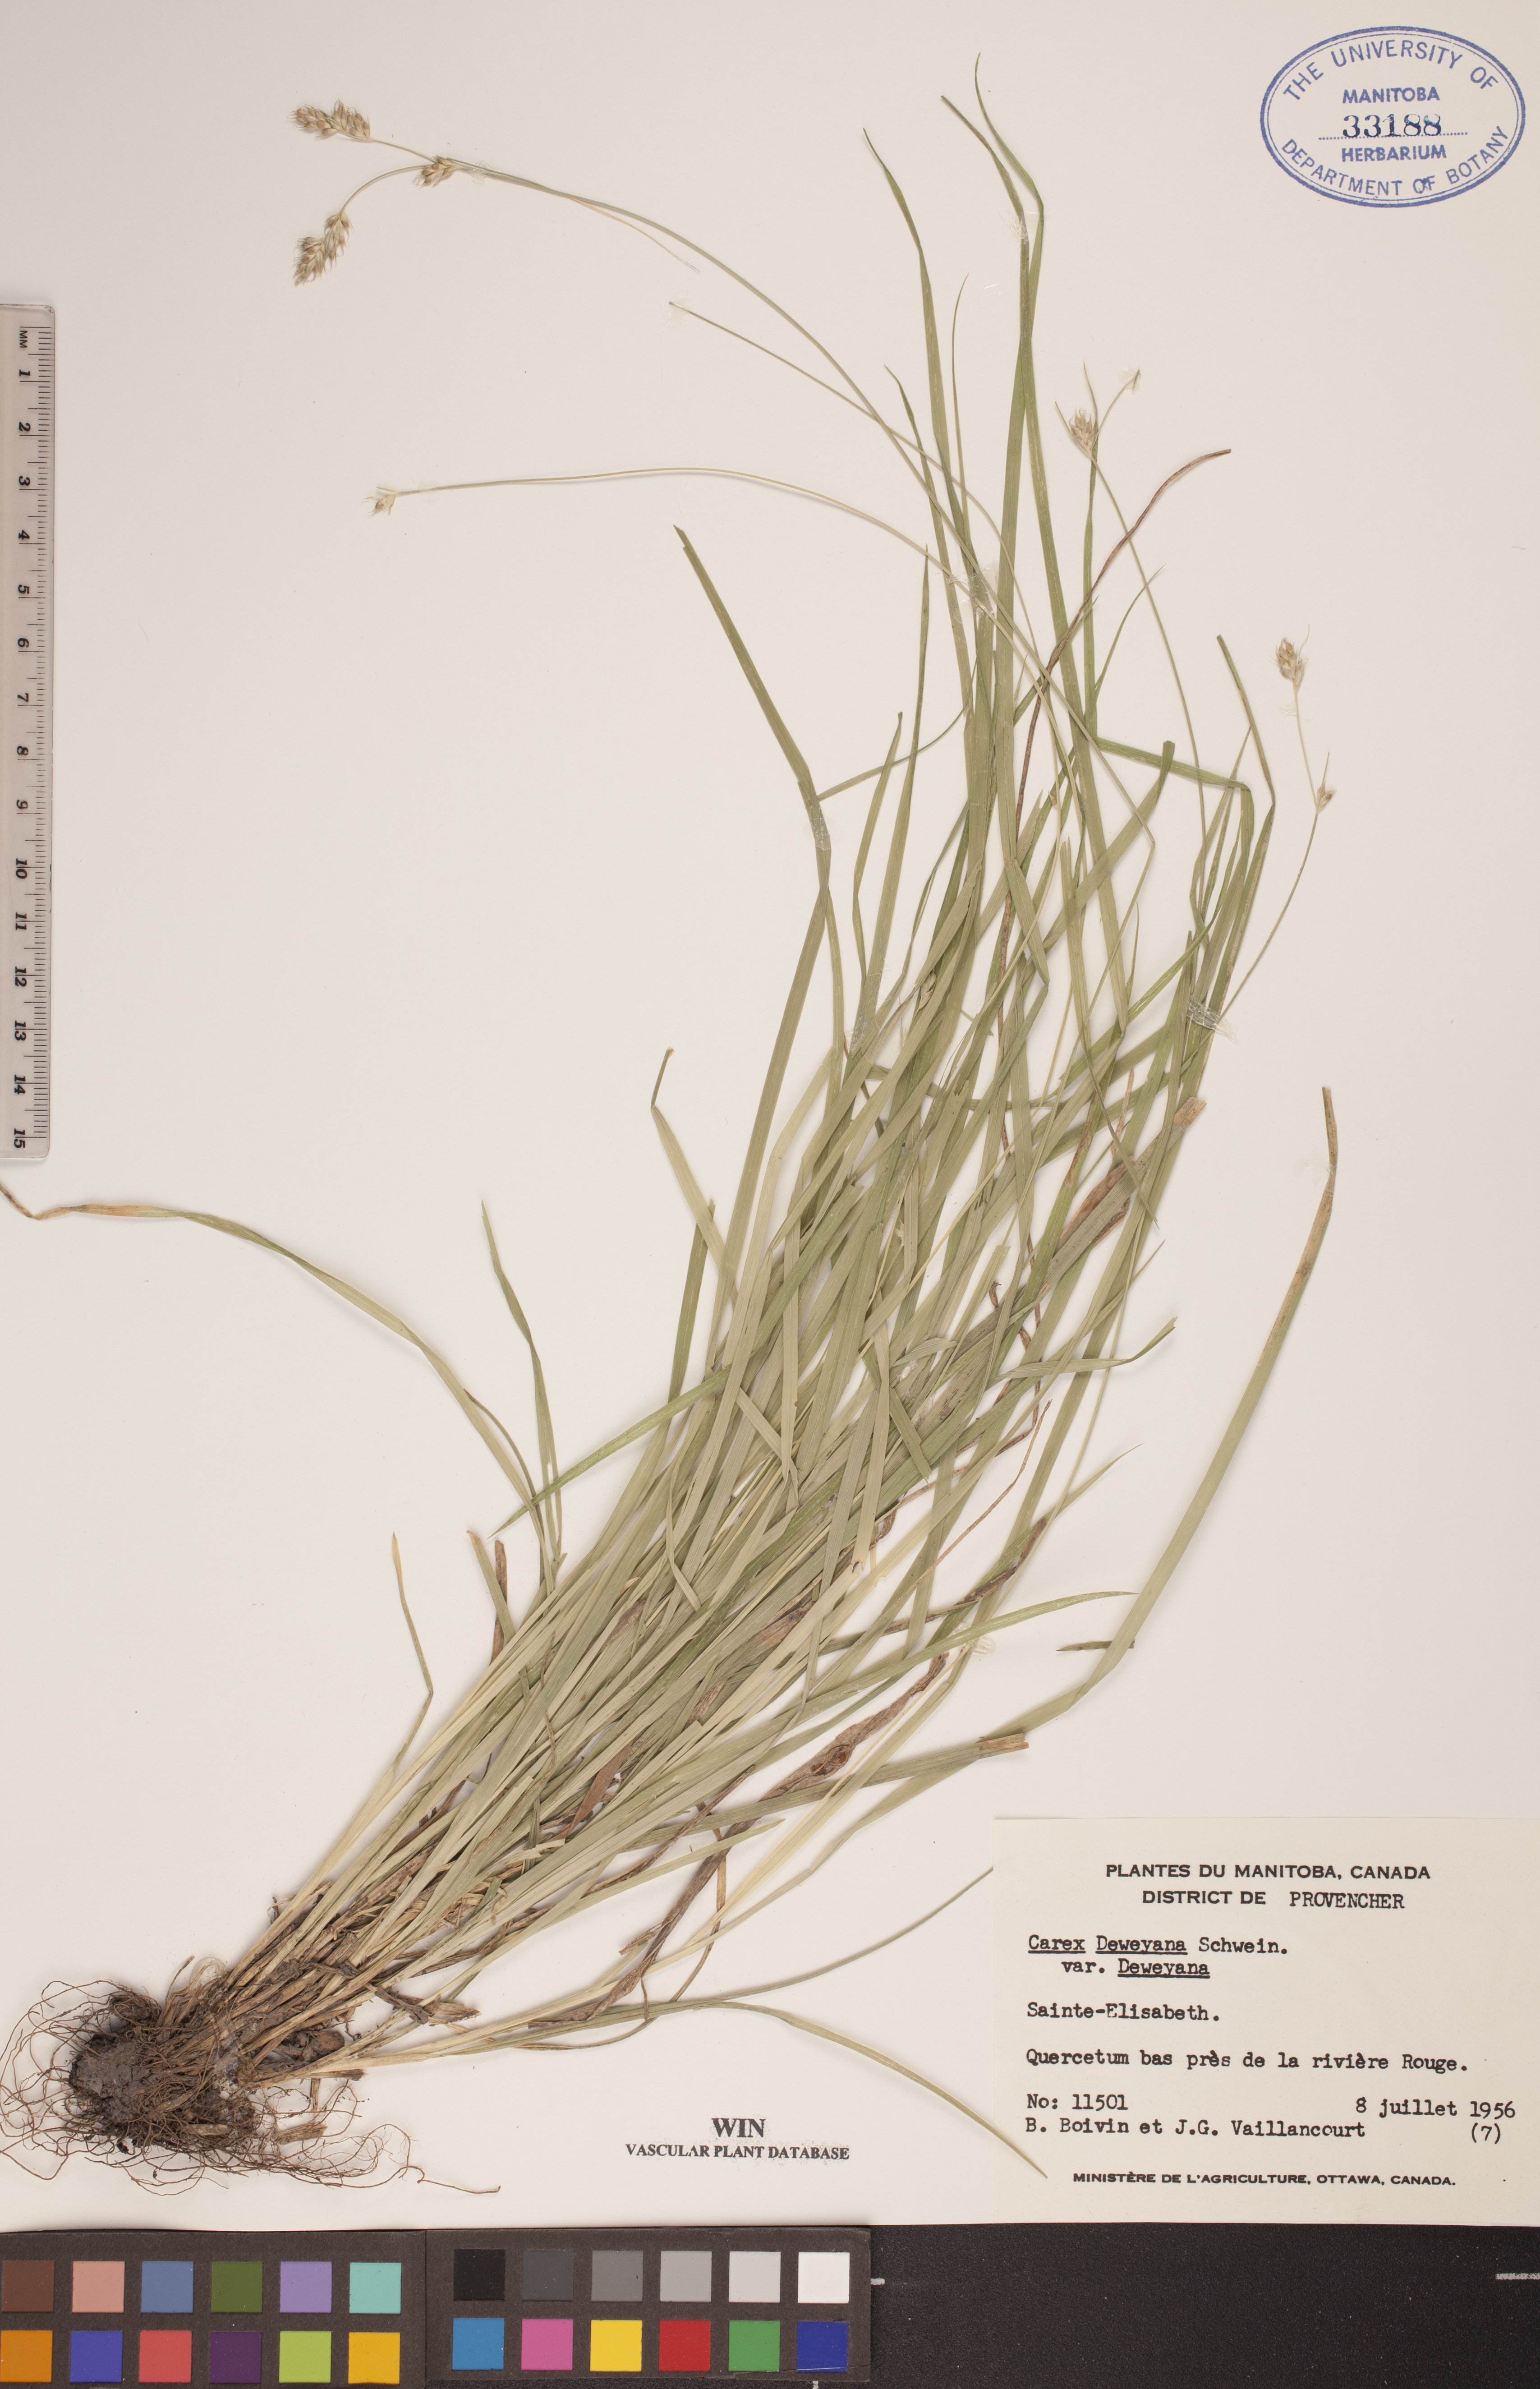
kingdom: Plantae
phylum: Tracheophyta
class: Liliopsida
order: Poales
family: Cyperaceae
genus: Carex
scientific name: Carex deweyana
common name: Dewey's sedge
